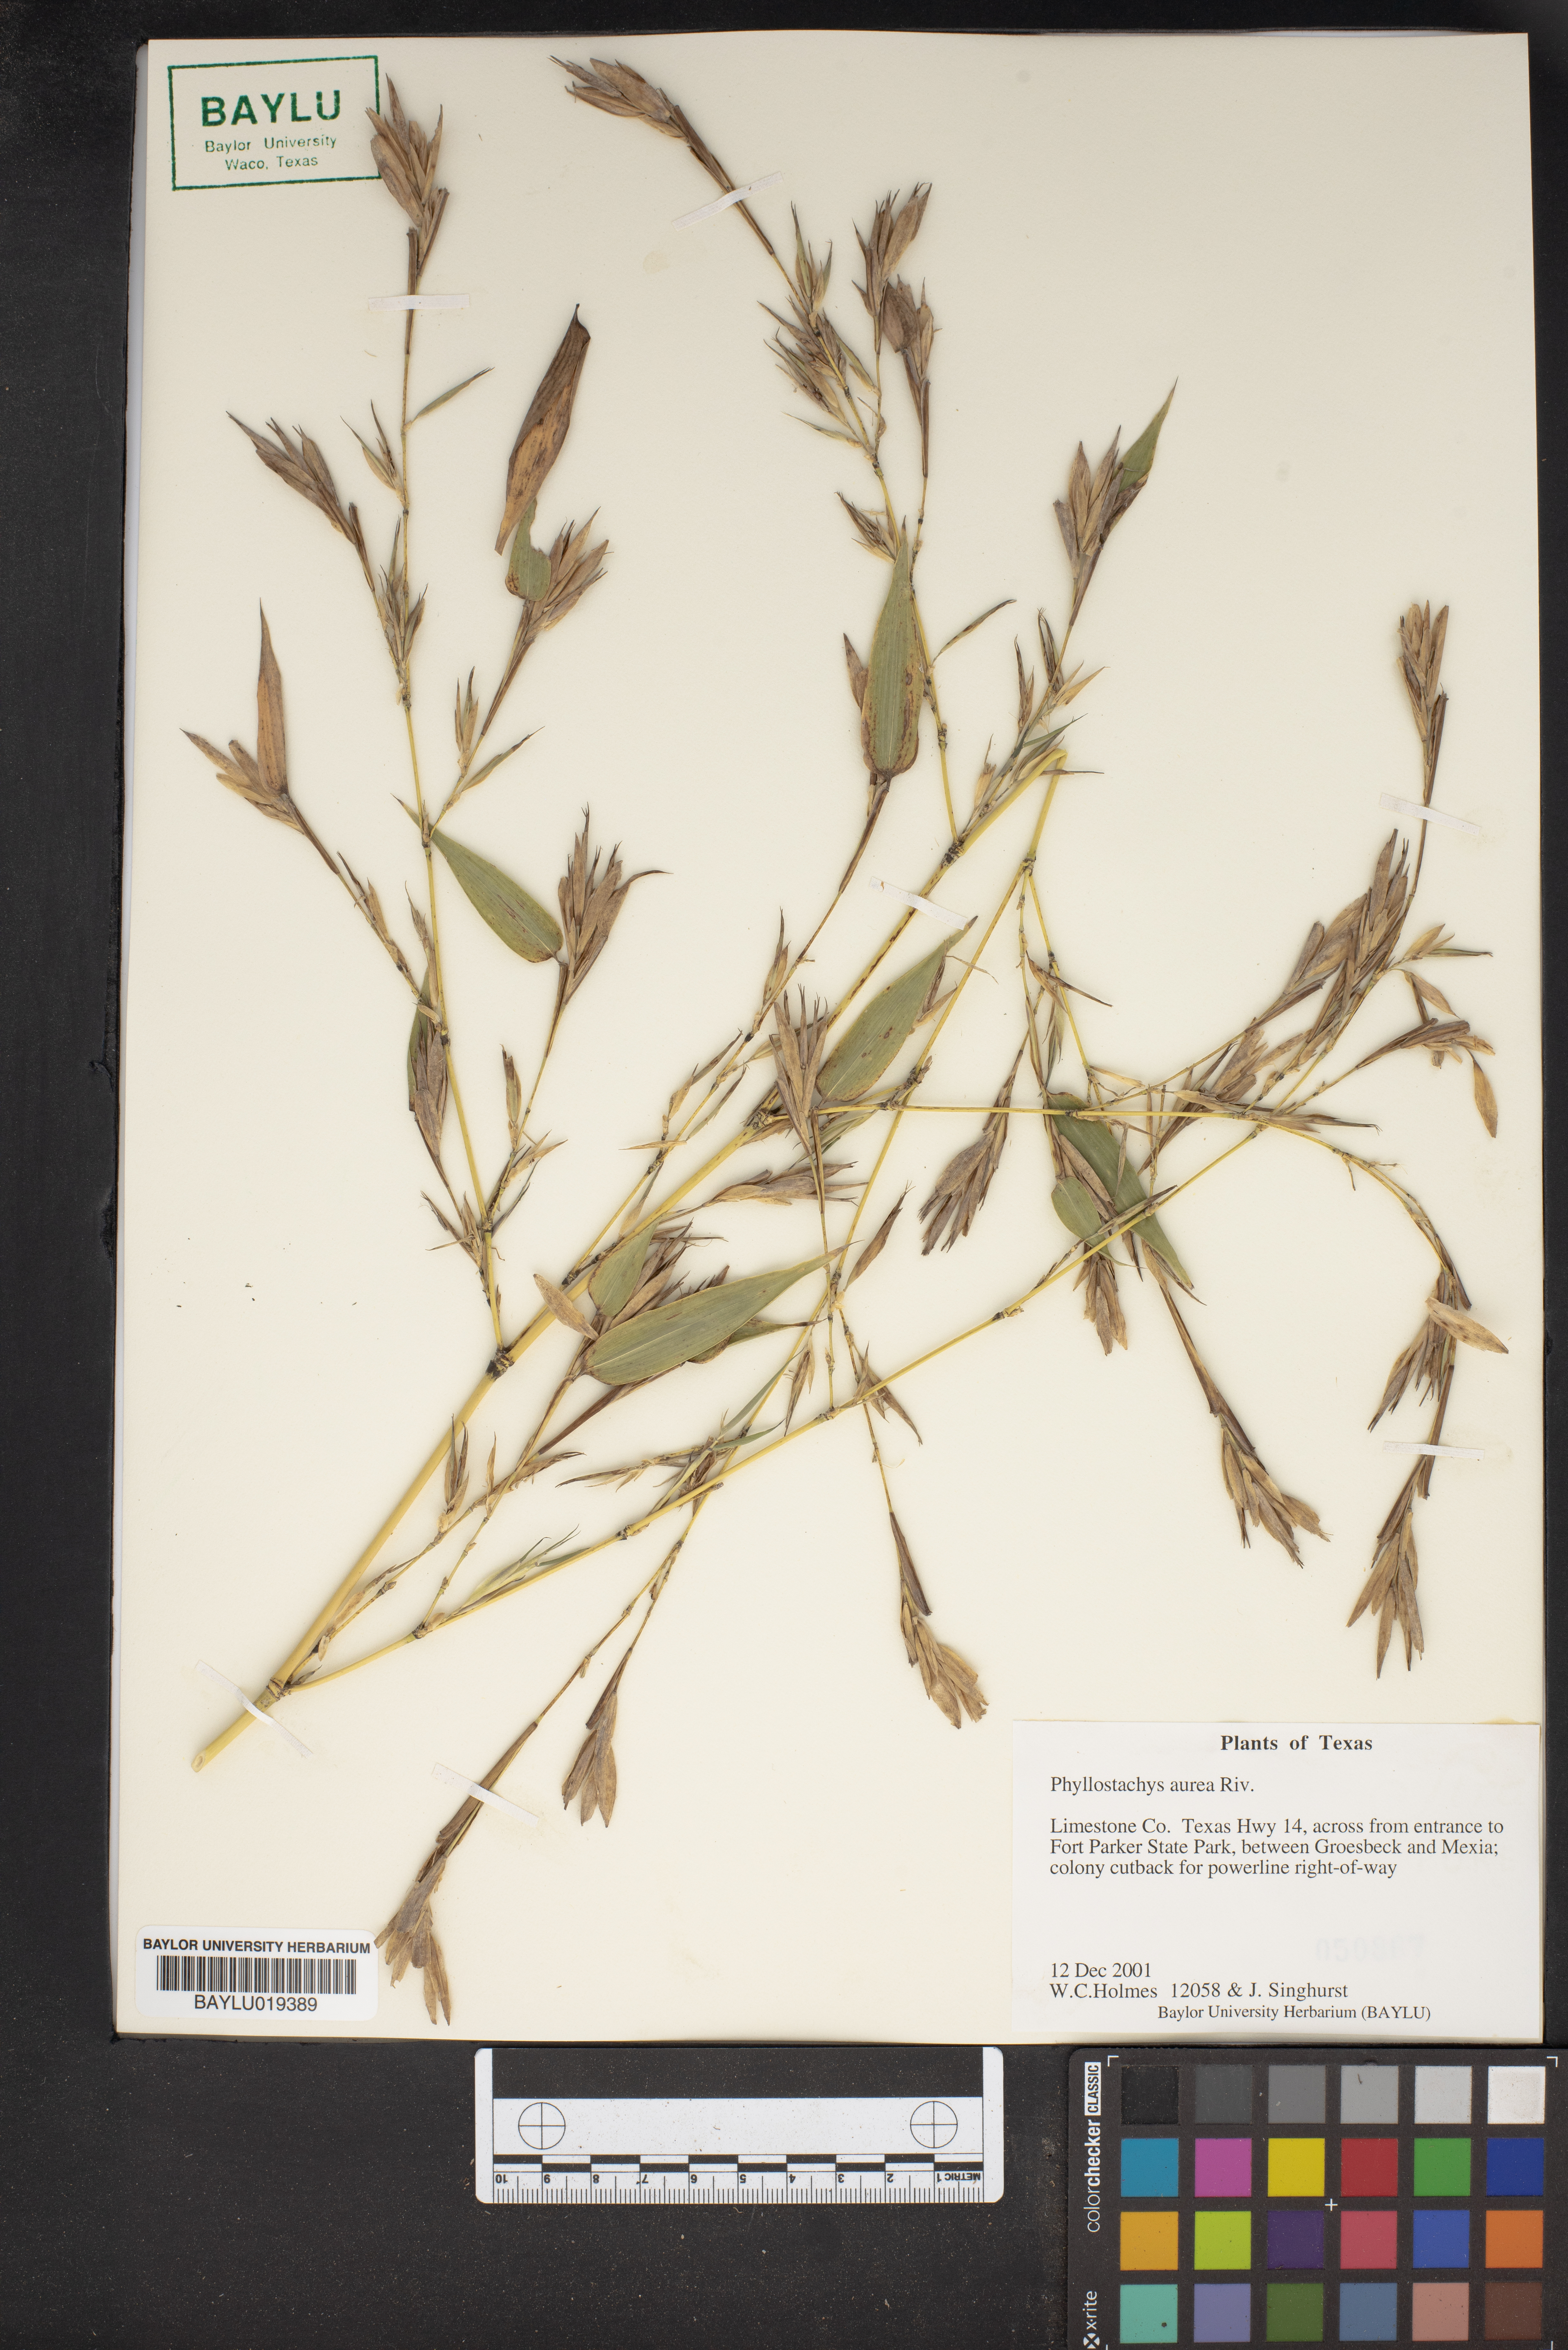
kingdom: Plantae
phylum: Tracheophyta
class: Liliopsida
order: Poales
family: Poaceae
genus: Phyllostachys
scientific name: Phyllostachys aurea
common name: Golden bamboo
